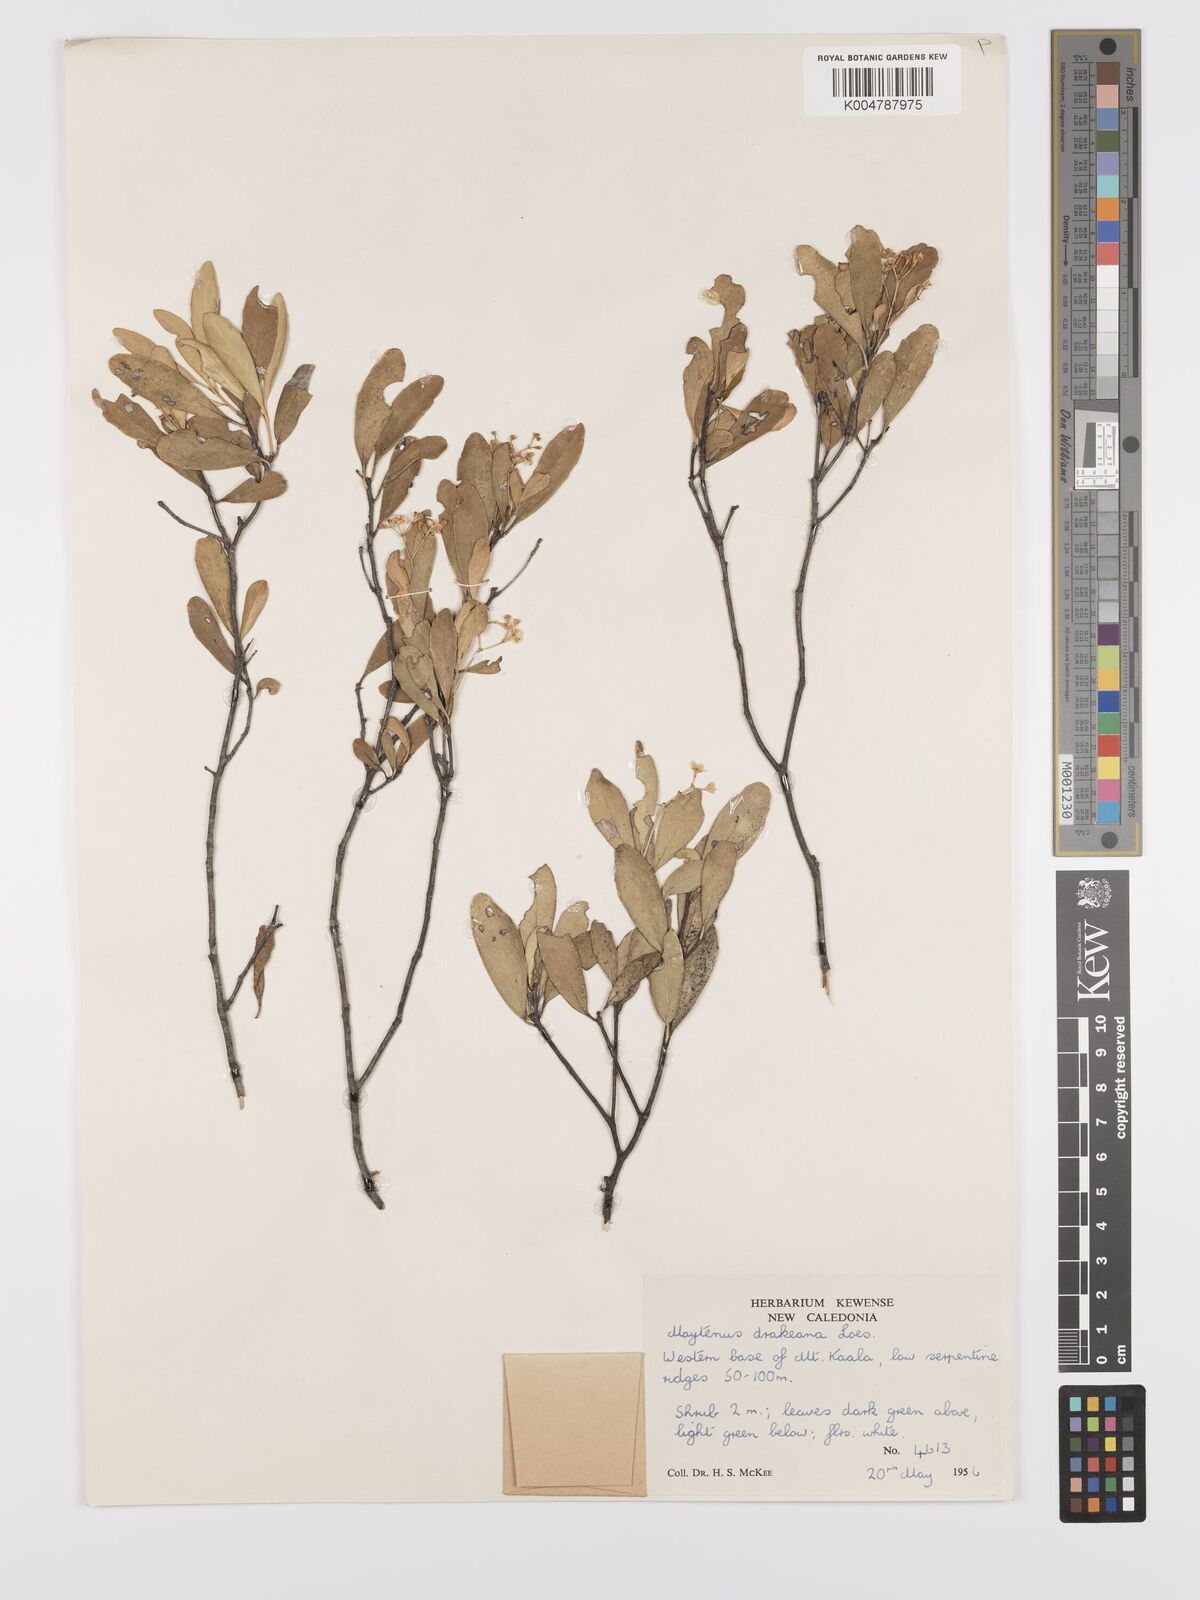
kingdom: Plantae
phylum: Tracheophyta
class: Magnoliopsida
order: Celastrales
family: Celastraceae
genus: Denhamia
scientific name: Denhamia fournieri
